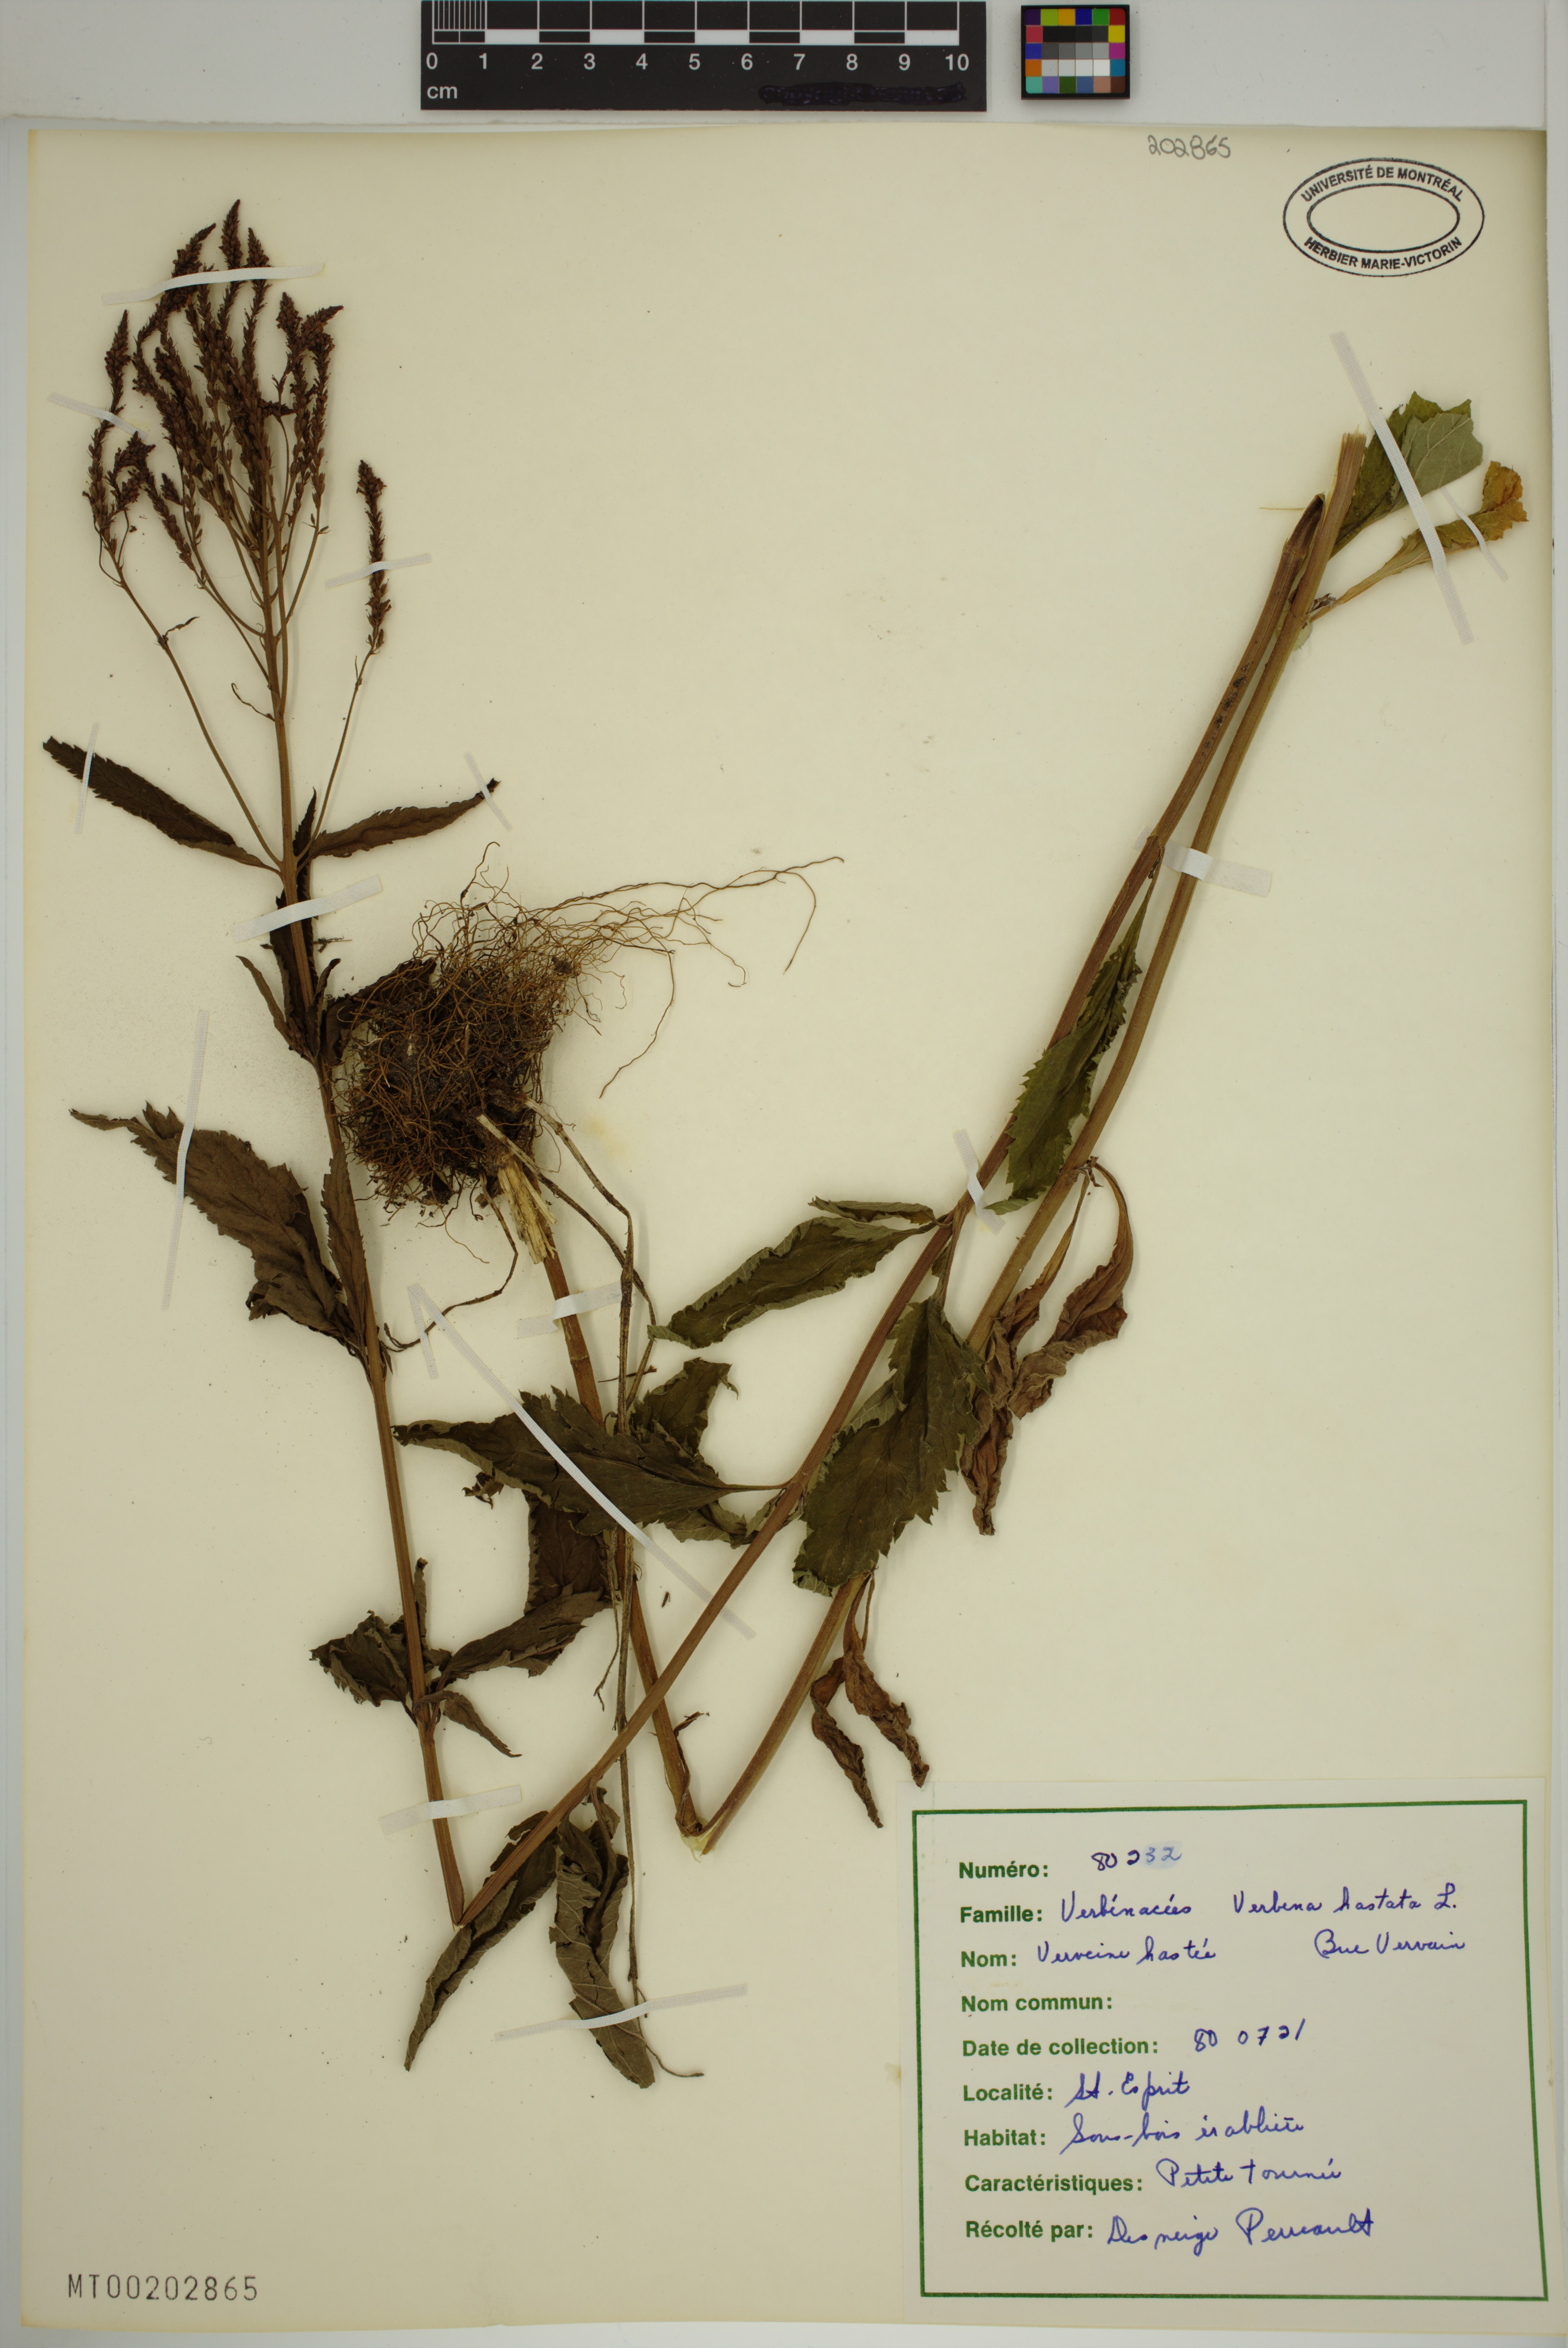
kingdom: Plantae
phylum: Tracheophyta
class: Magnoliopsida
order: Lamiales
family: Verbenaceae
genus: Verbena
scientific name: Verbena hastata
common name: American blue vervain
